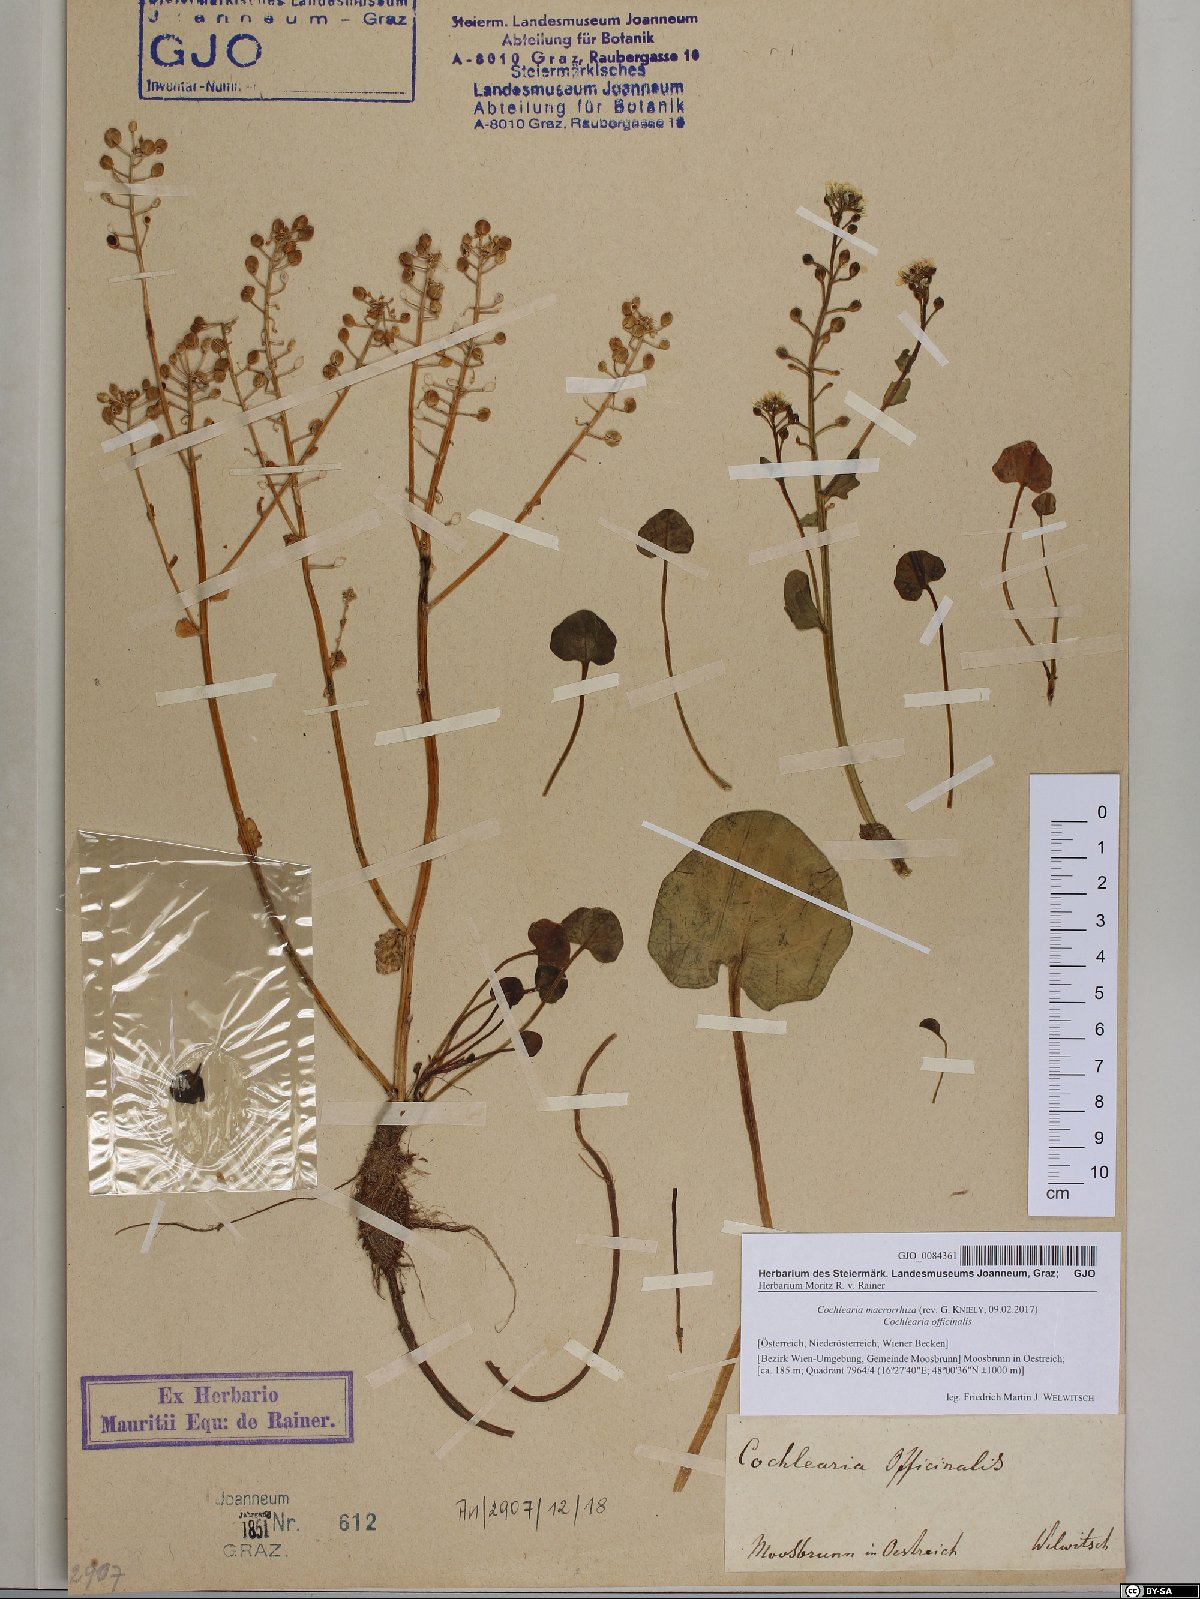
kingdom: Plantae
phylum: Tracheophyta
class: Magnoliopsida
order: Brassicales
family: Brassicaceae
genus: Cochlearia
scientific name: Cochlearia pyrenaica
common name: Upland scurvy-grass
